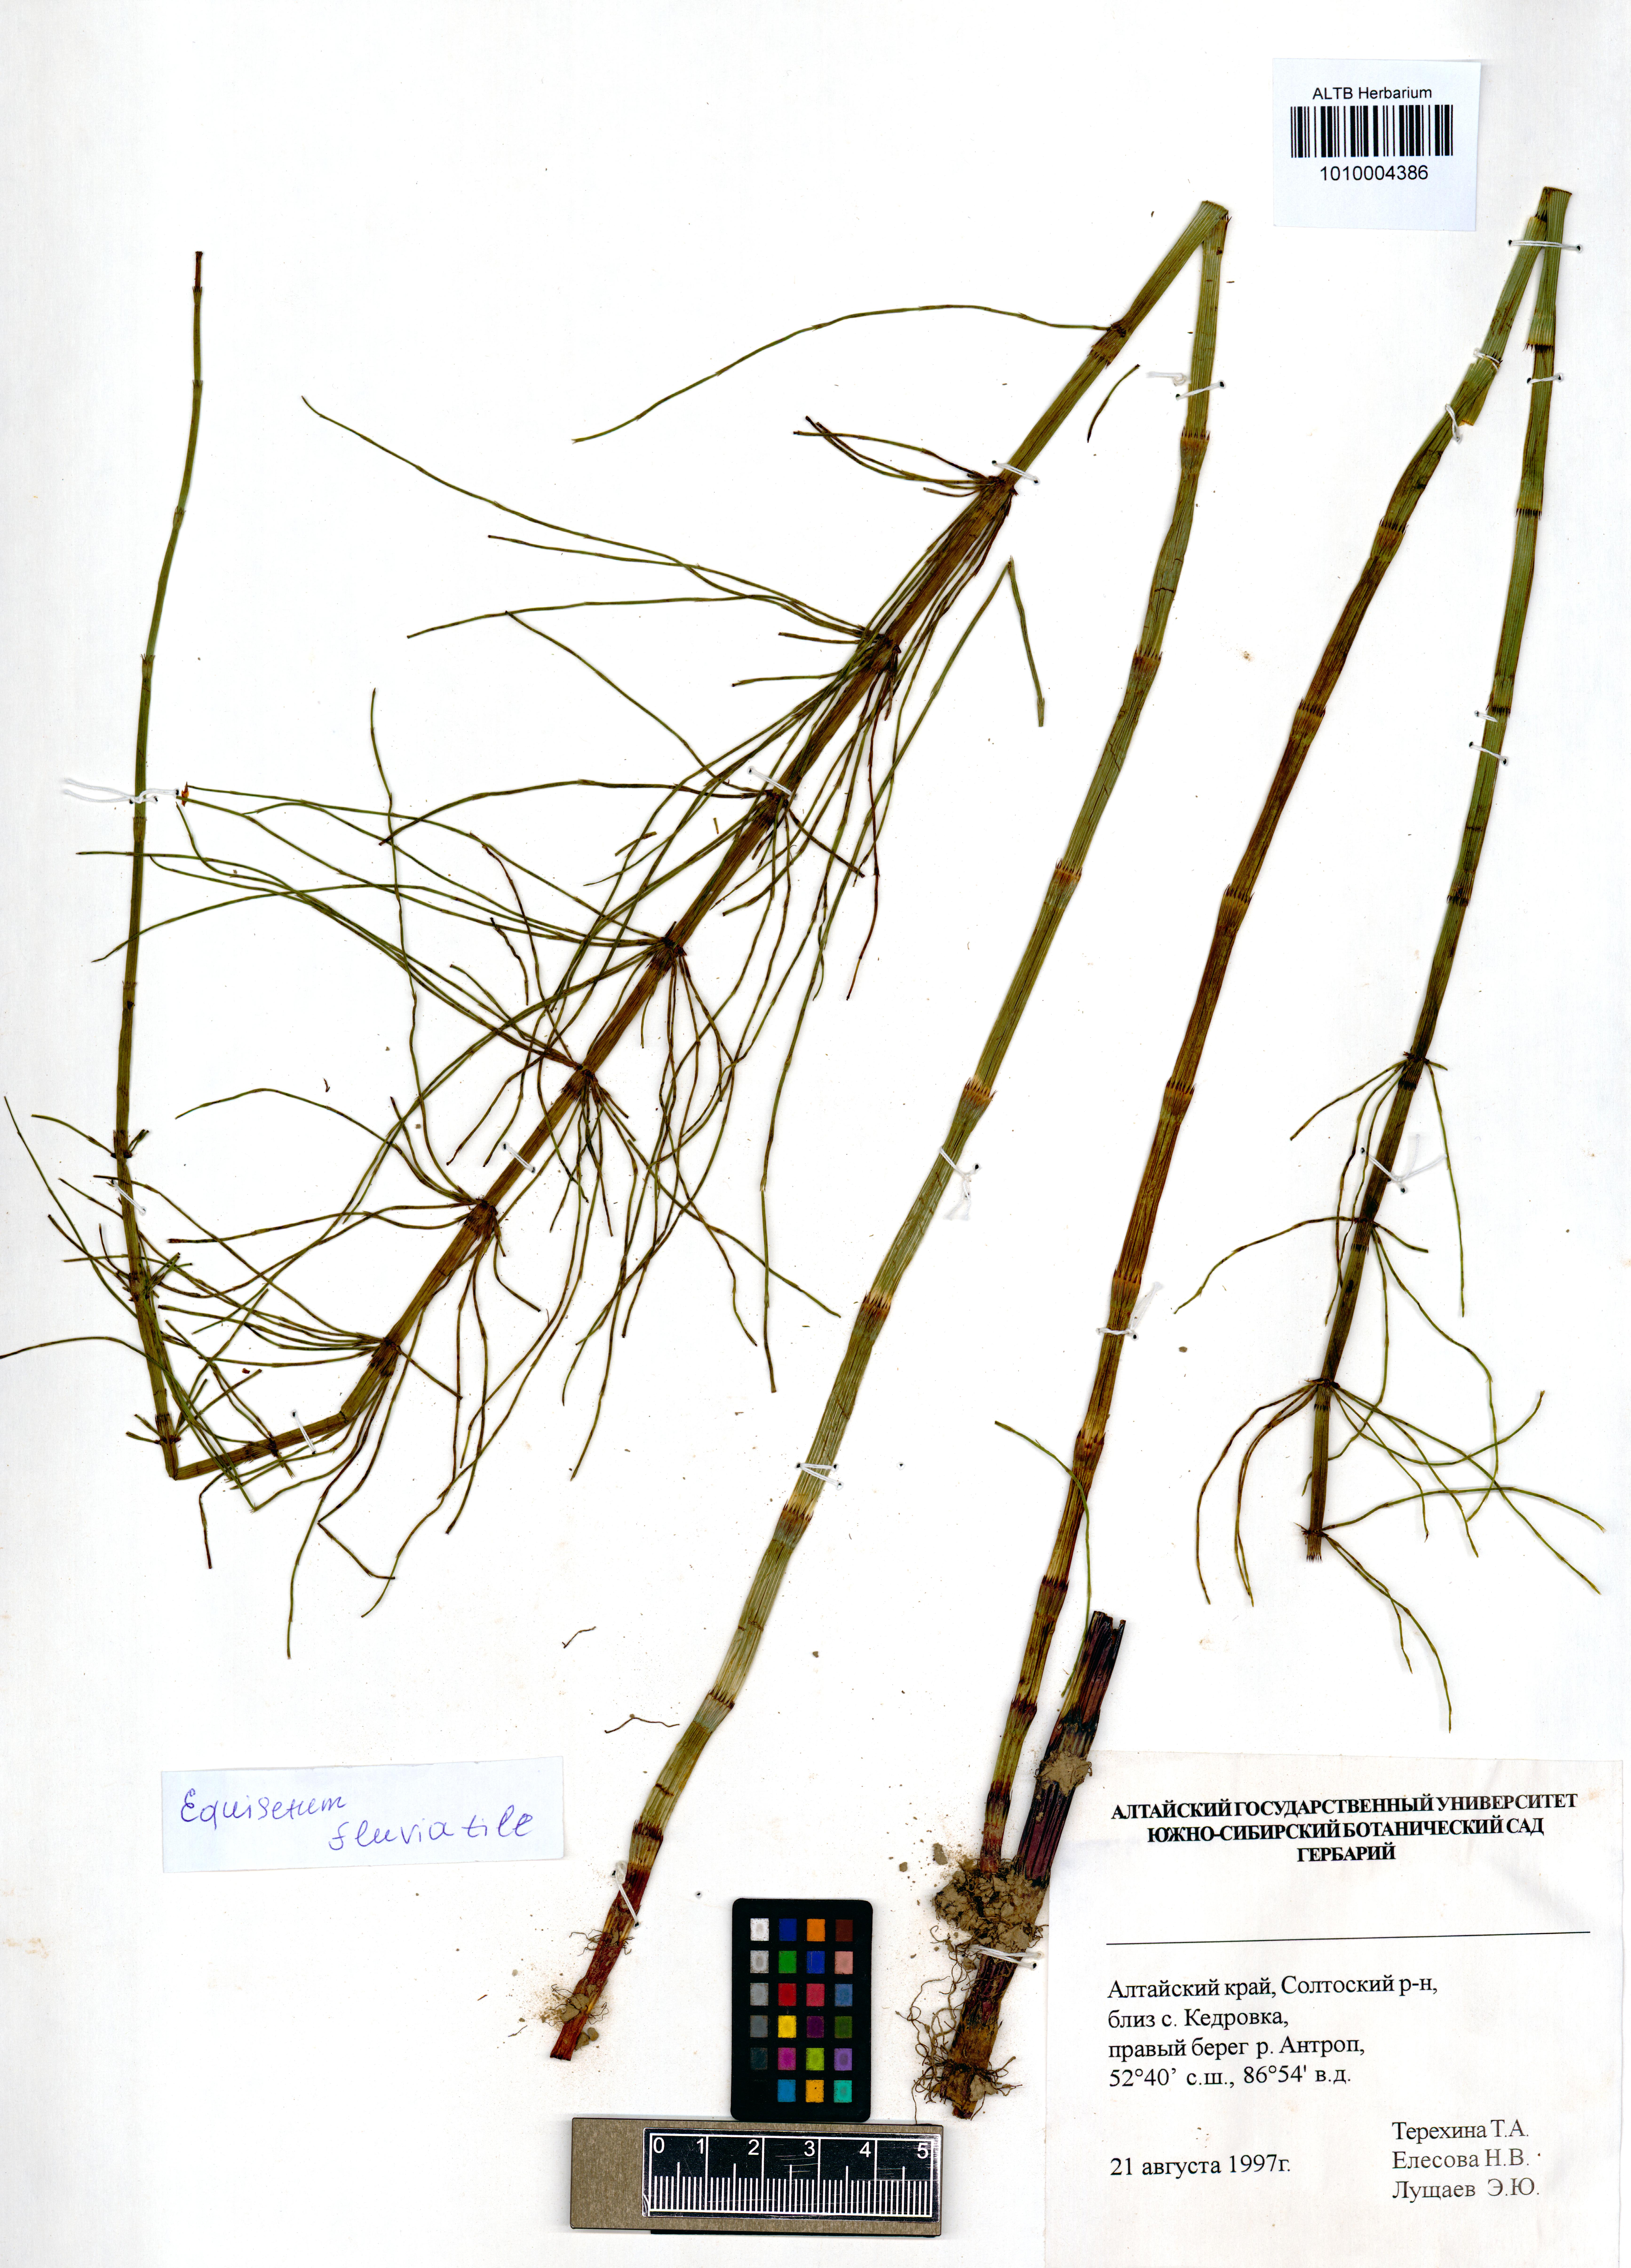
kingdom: Plantae
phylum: Tracheophyta
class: Polypodiopsida
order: Equisetales
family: Equisetaceae
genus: Equisetum
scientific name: Equisetum fluviatile
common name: Water horsetail
